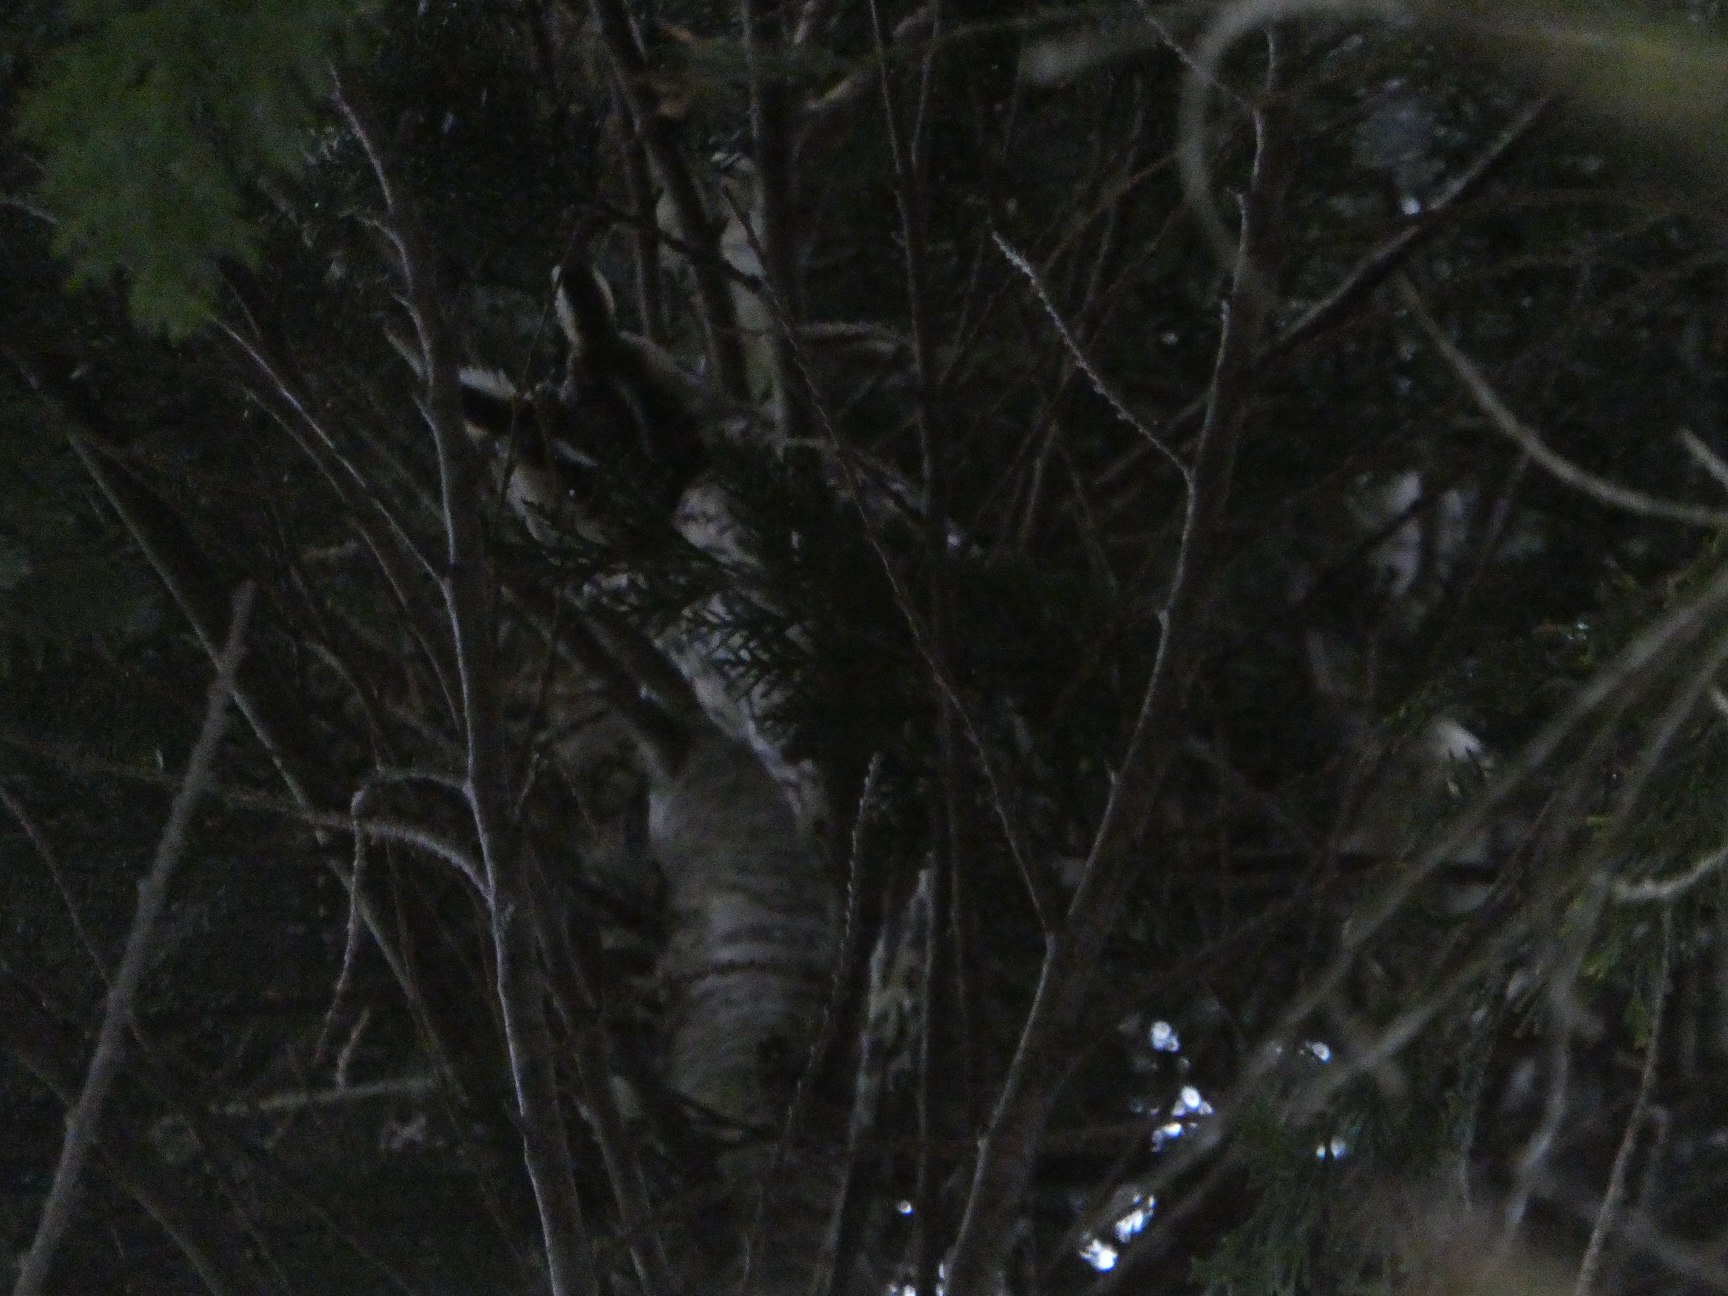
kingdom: Animalia
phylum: Chordata
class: Aves
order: Strigiformes
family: Strigidae
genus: Asio
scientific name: Asio otus
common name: Skovhornugle
